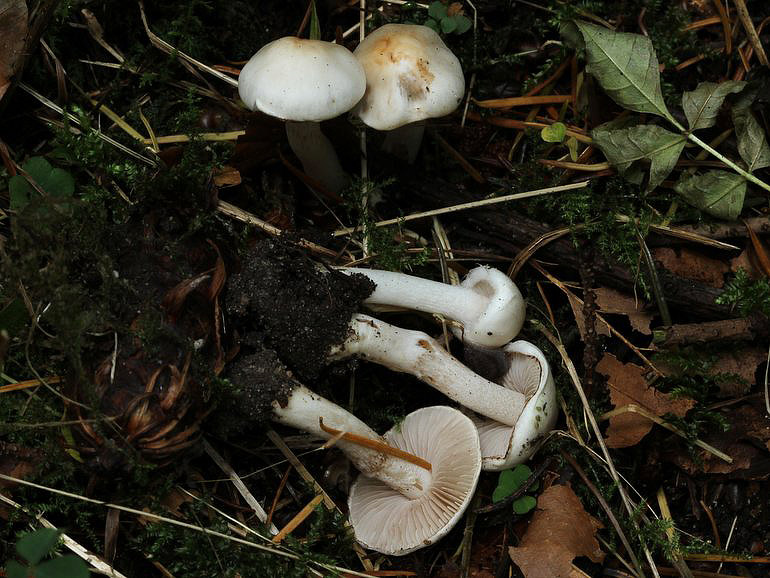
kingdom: Fungi
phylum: Basidiomycota
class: Agaricomycetes
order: Agaricales
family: Inocybaceae
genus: Inocybe
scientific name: Inocybe
